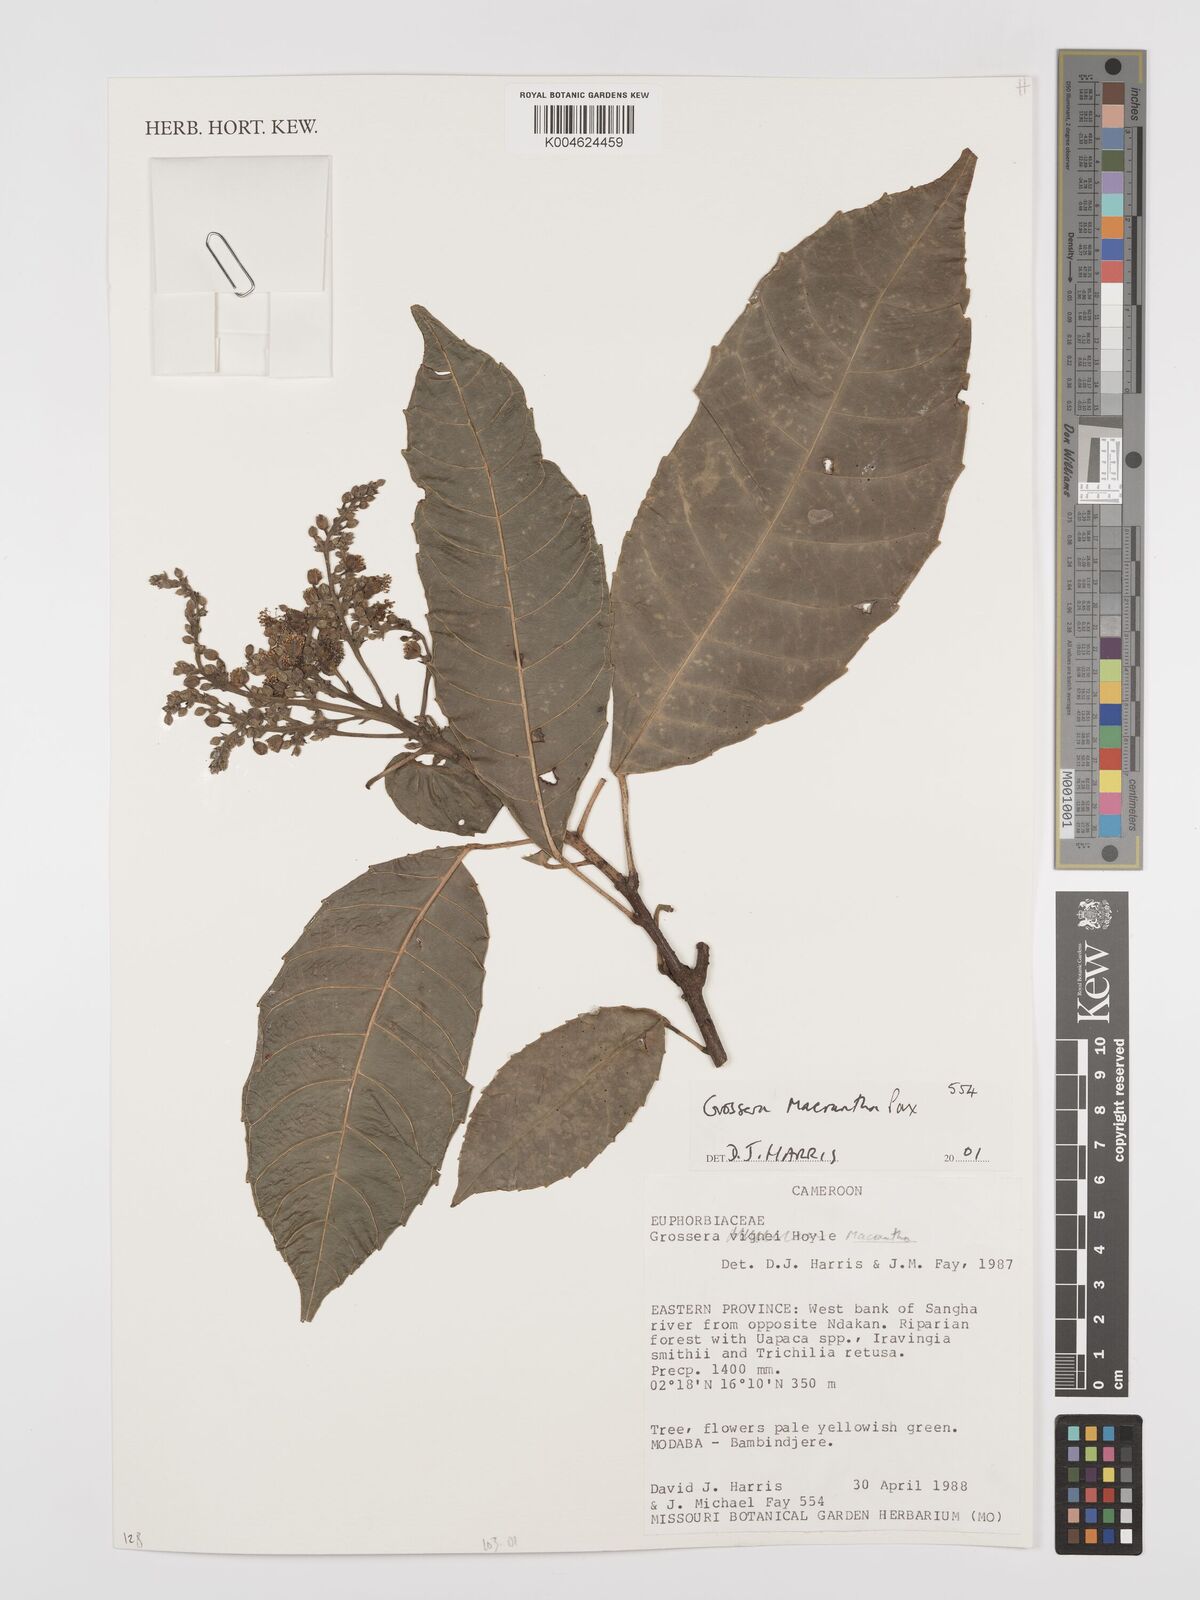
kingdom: Plantae
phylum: Tracheophyta
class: Magnoliopsida
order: Malpighiales
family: Euphorbiaceae
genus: Grossera
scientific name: Grossera macrantha
